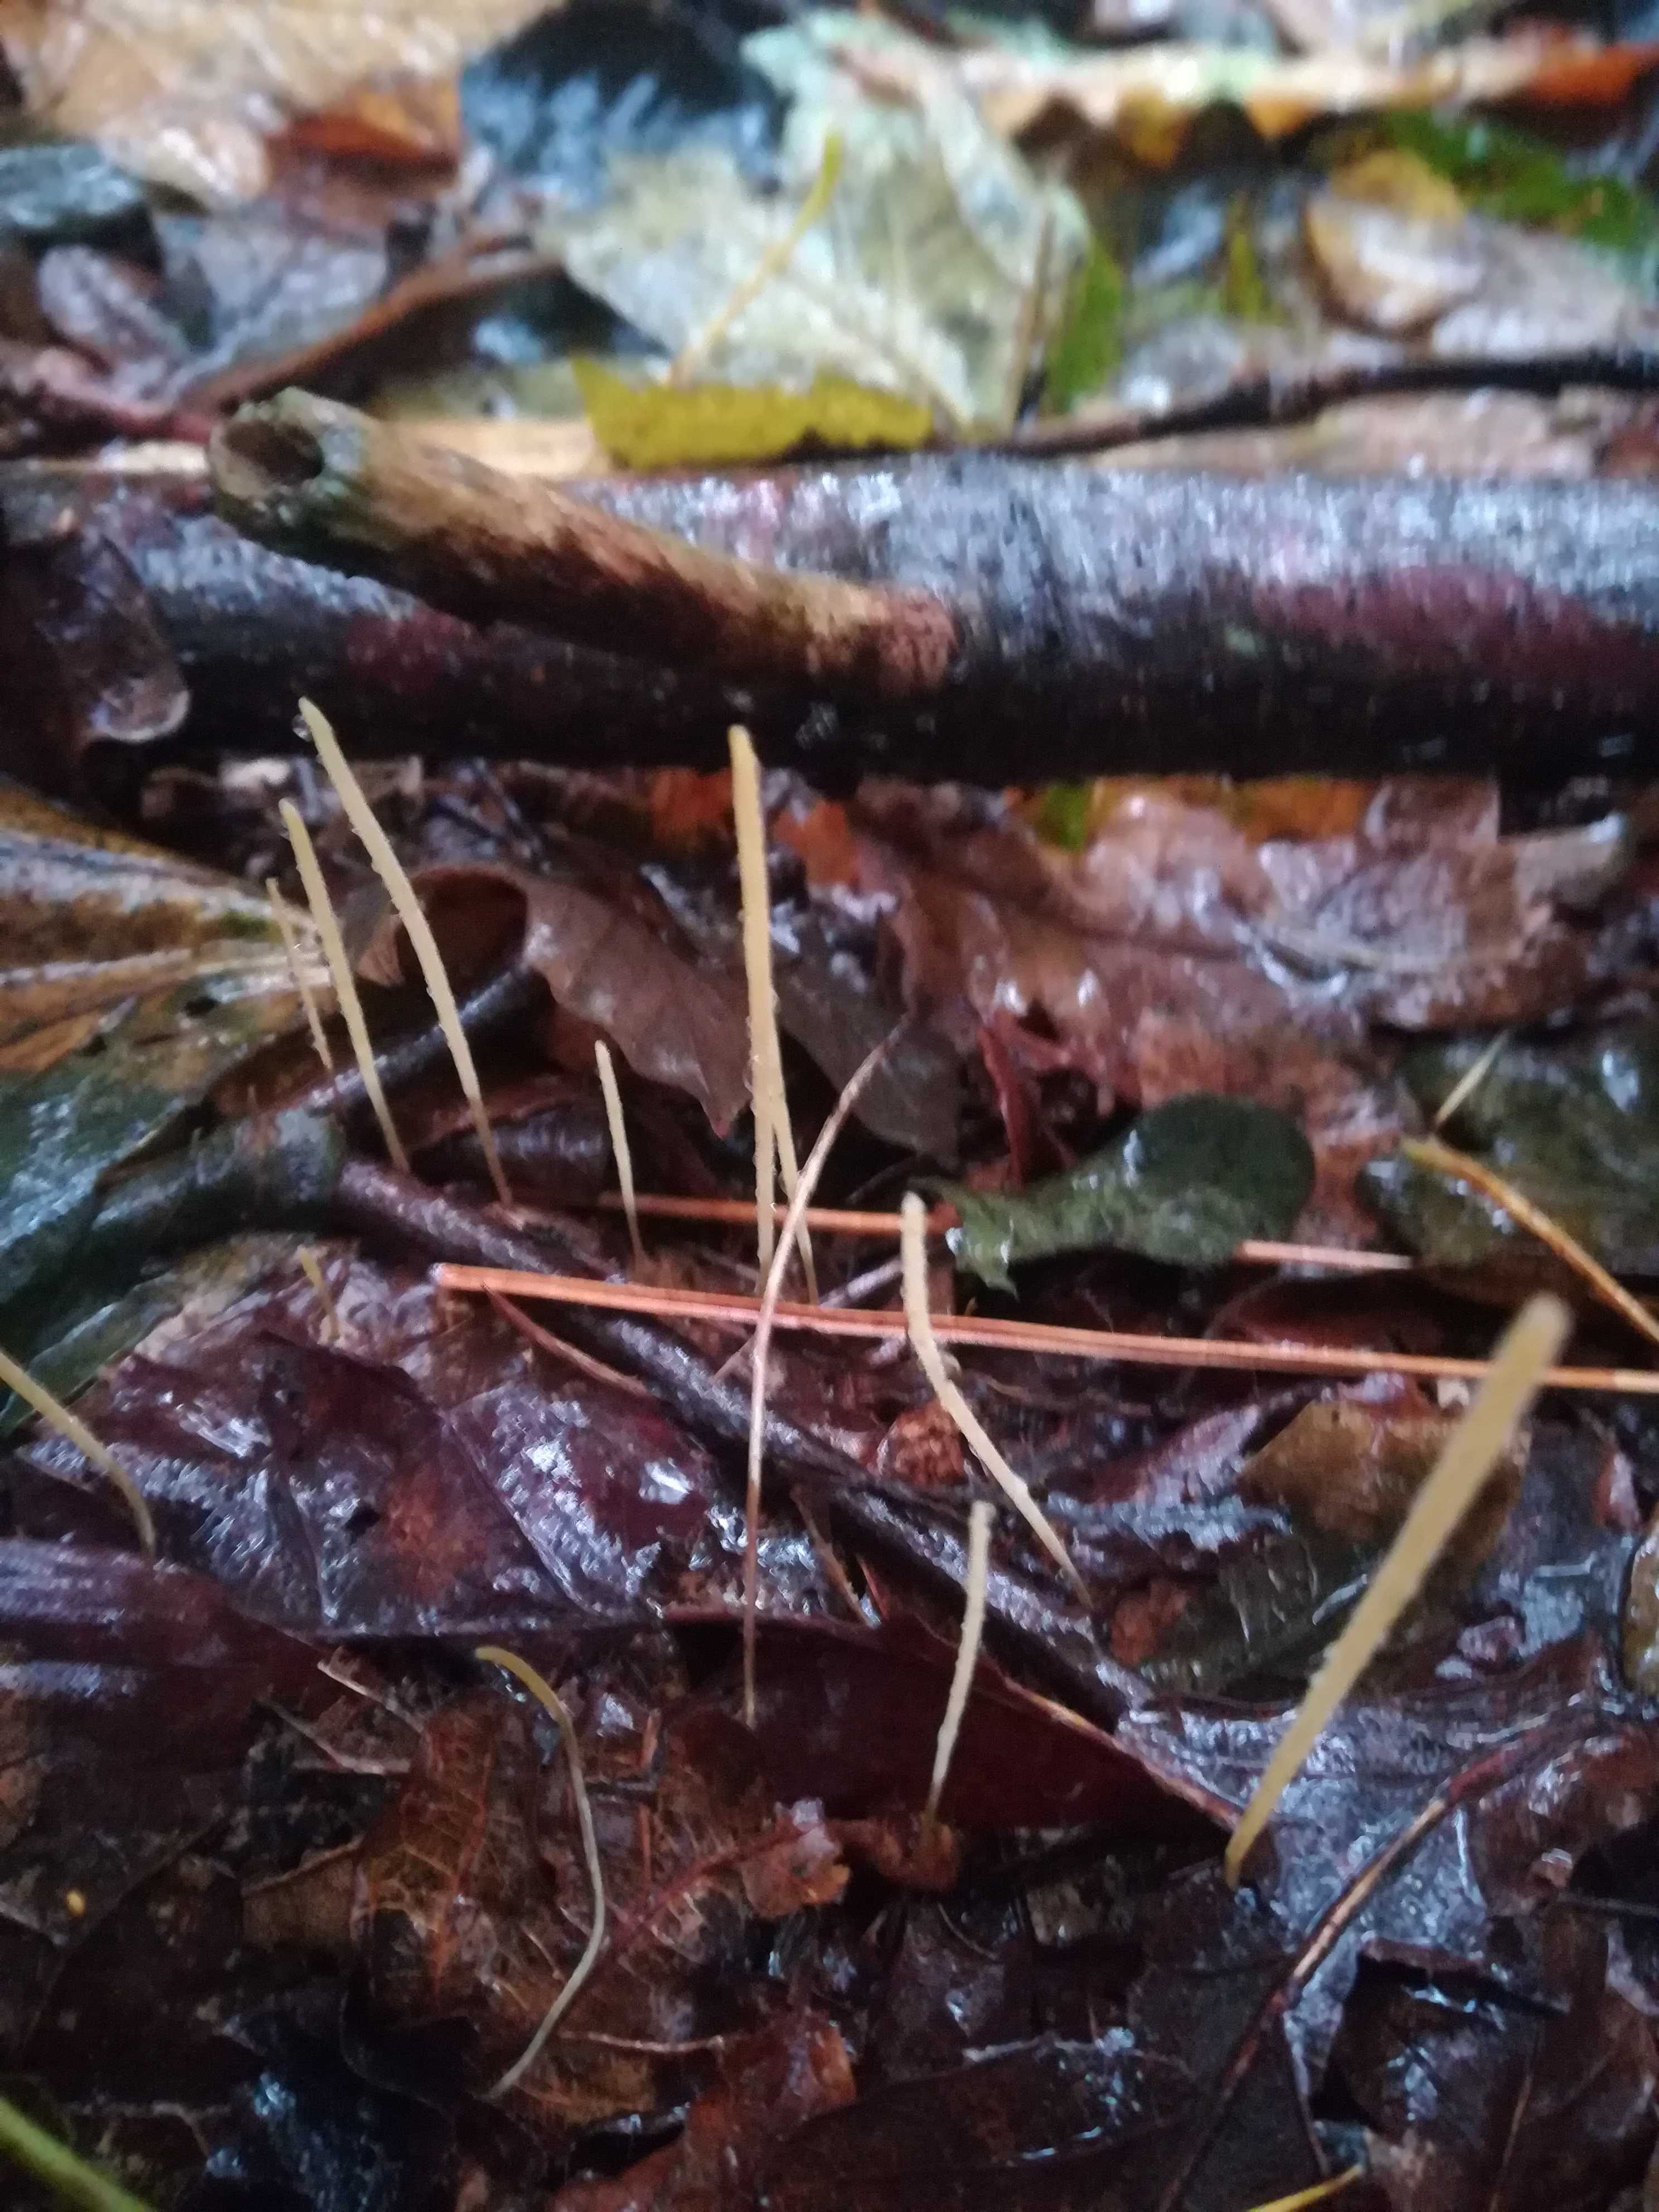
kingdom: Fungi
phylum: Basidiomycota
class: Agaricomycetes
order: Agaricales
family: Typhulaceae
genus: Macrotyphula
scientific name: Macrotyphula
